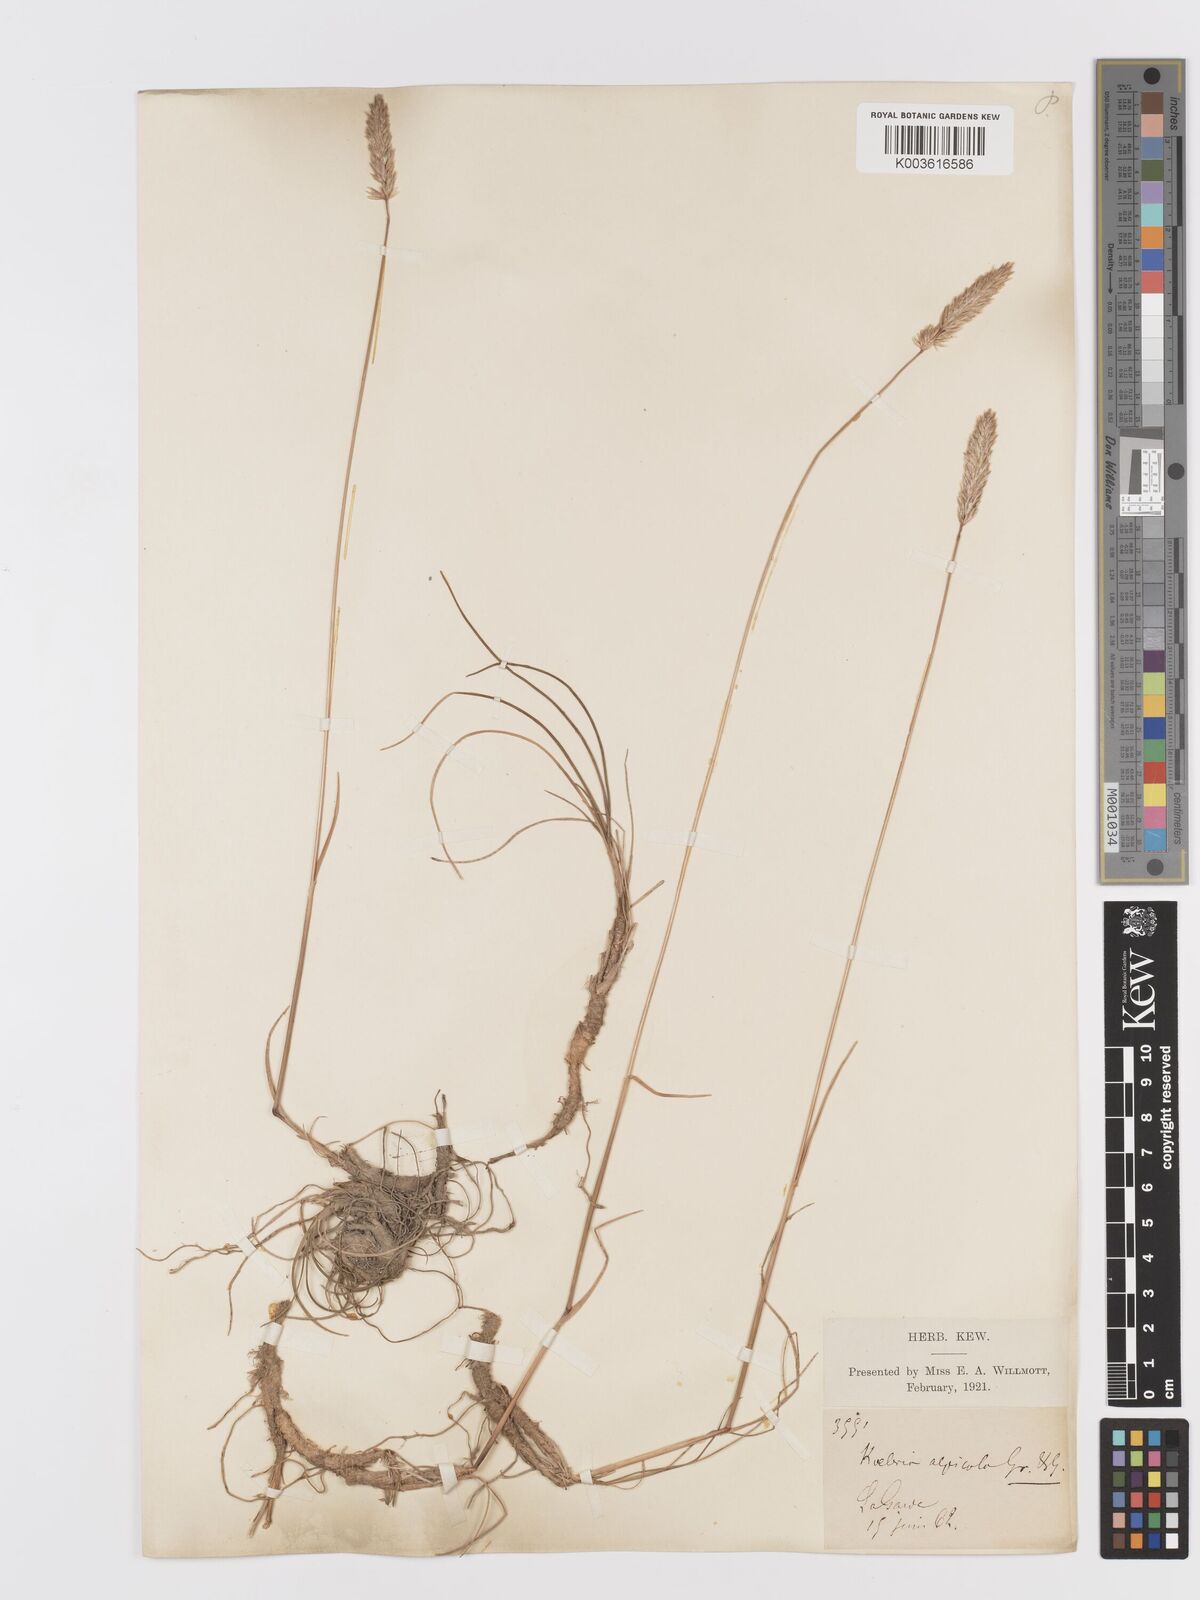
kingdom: Plantae
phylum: Tracheophyta
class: Liliopsida
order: Poales
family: Poaceae
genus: Koeleria
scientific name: Koeleria vallesiana
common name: Somerset hair-grass
